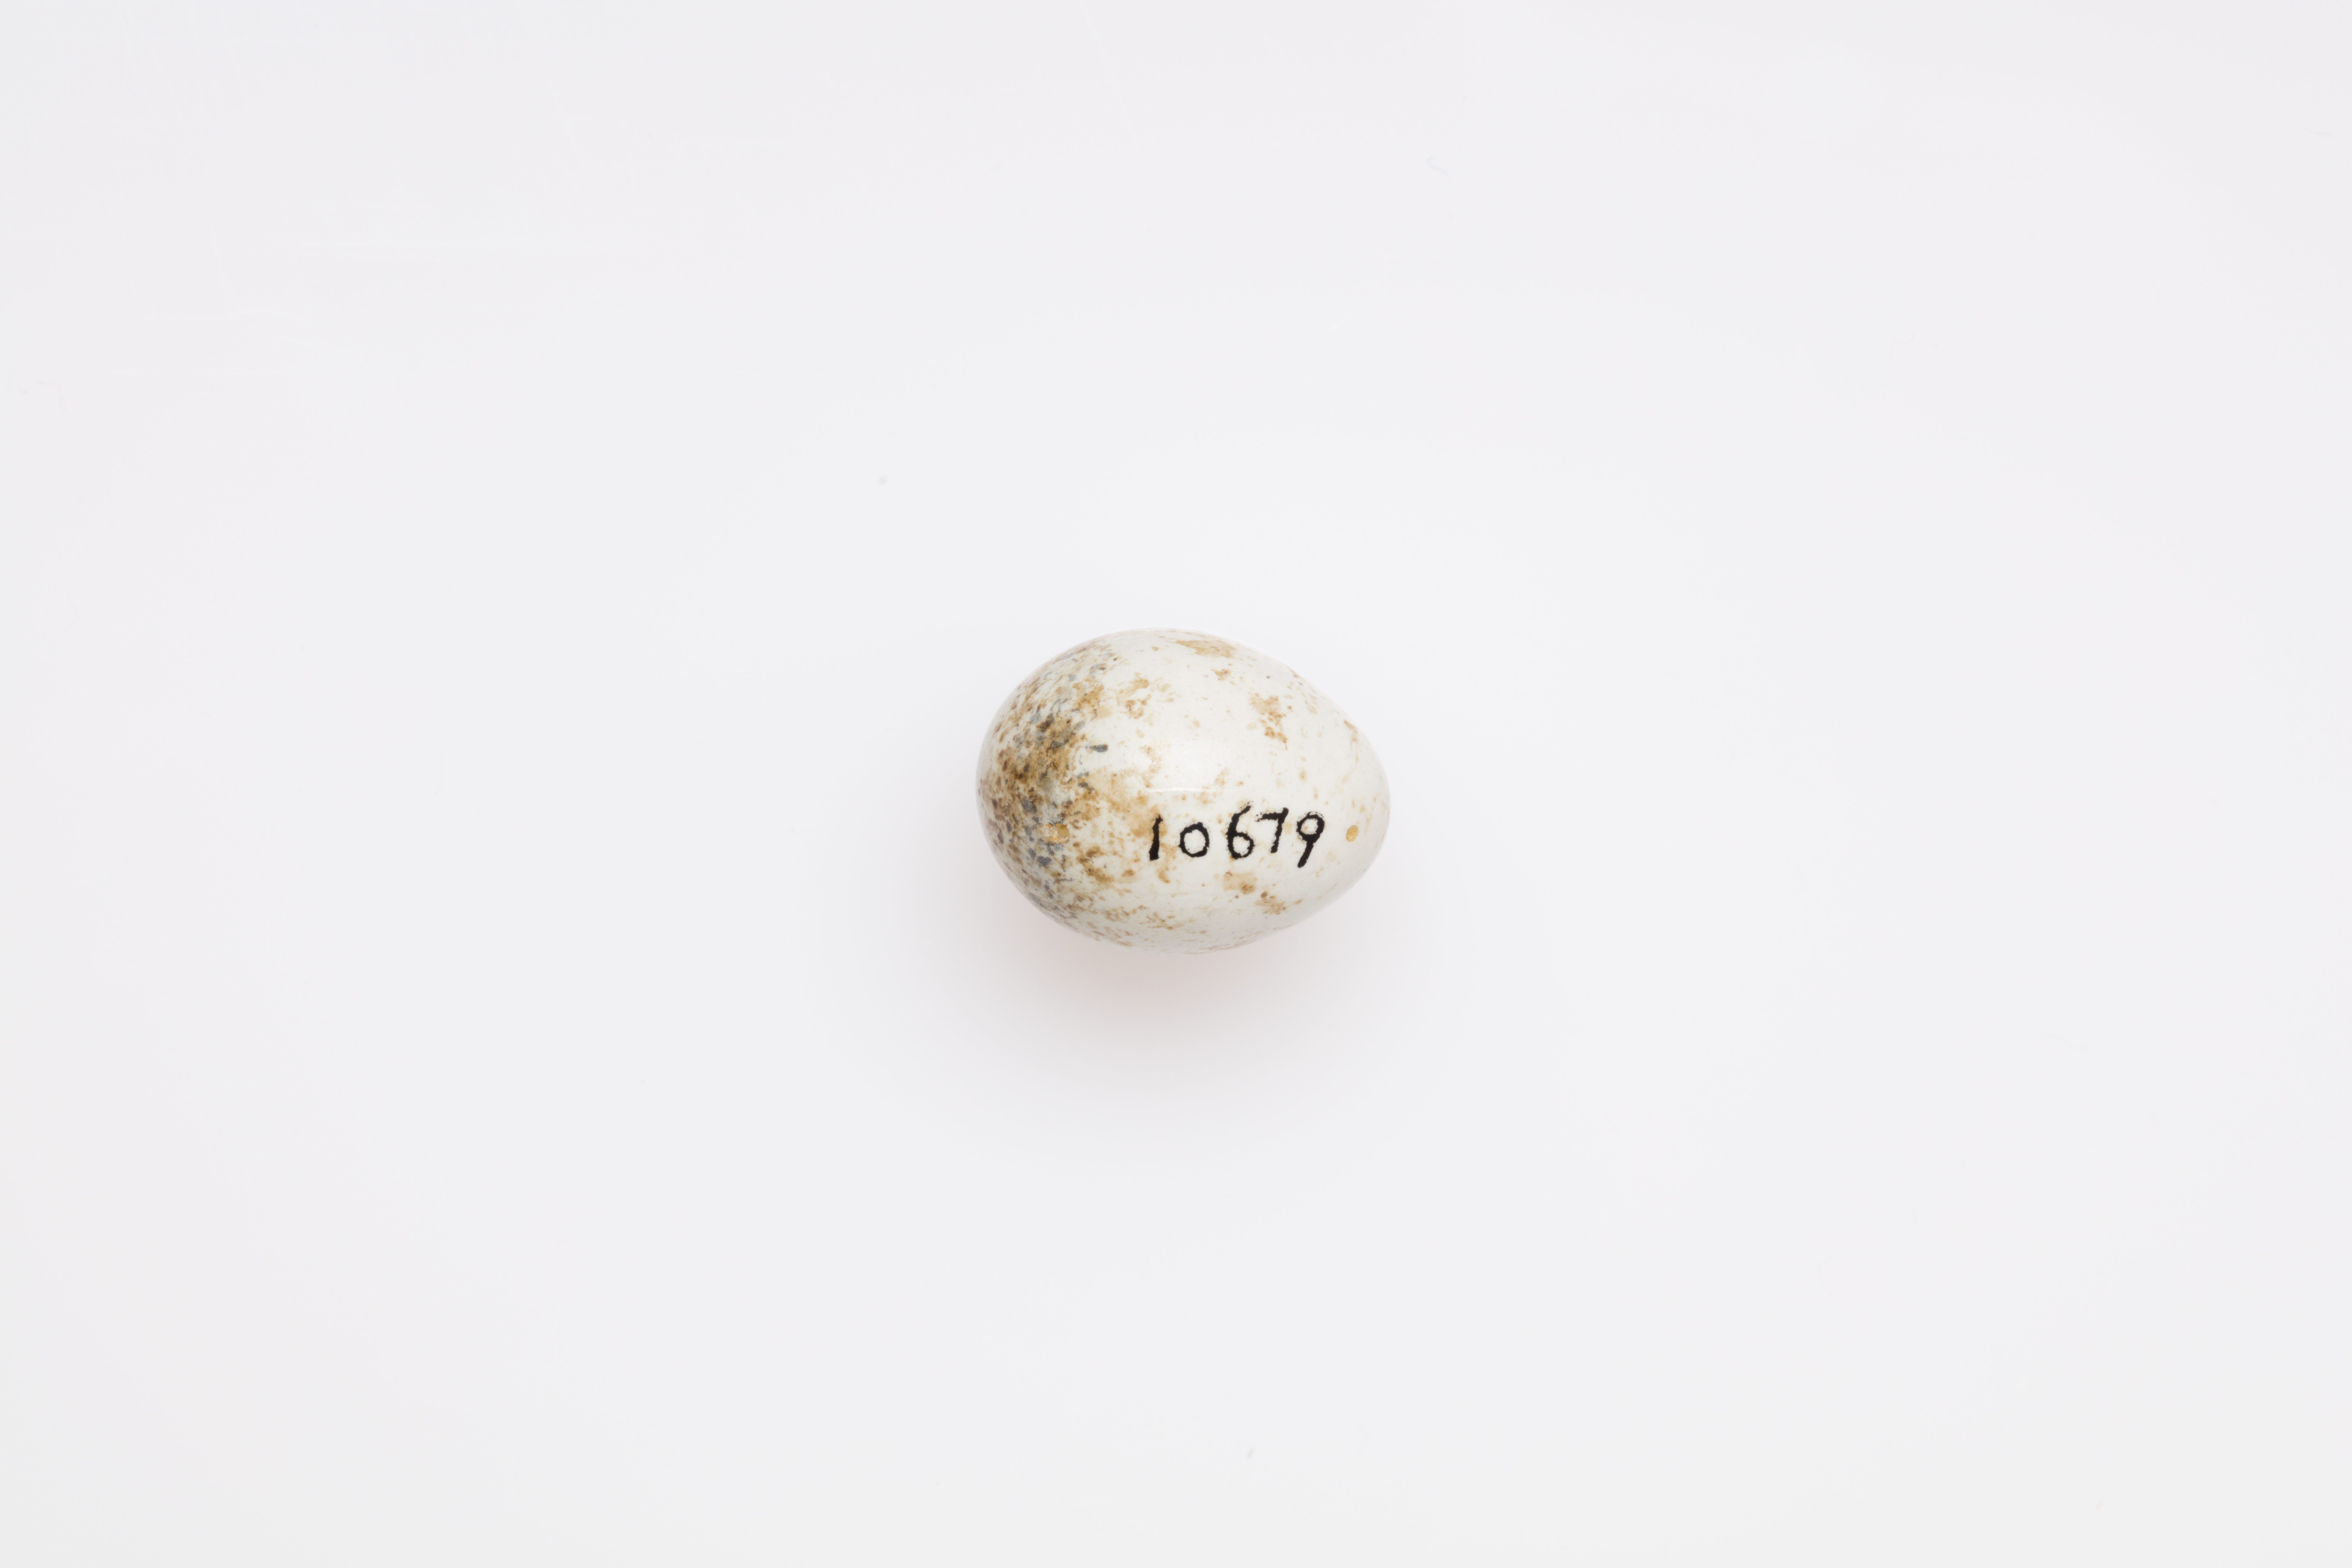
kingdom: Animalia
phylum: Chordata
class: Aves
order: Passeriformes
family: Sylviidae
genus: Sylvia
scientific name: Sylvia curruca
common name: Lesser whitethroat
